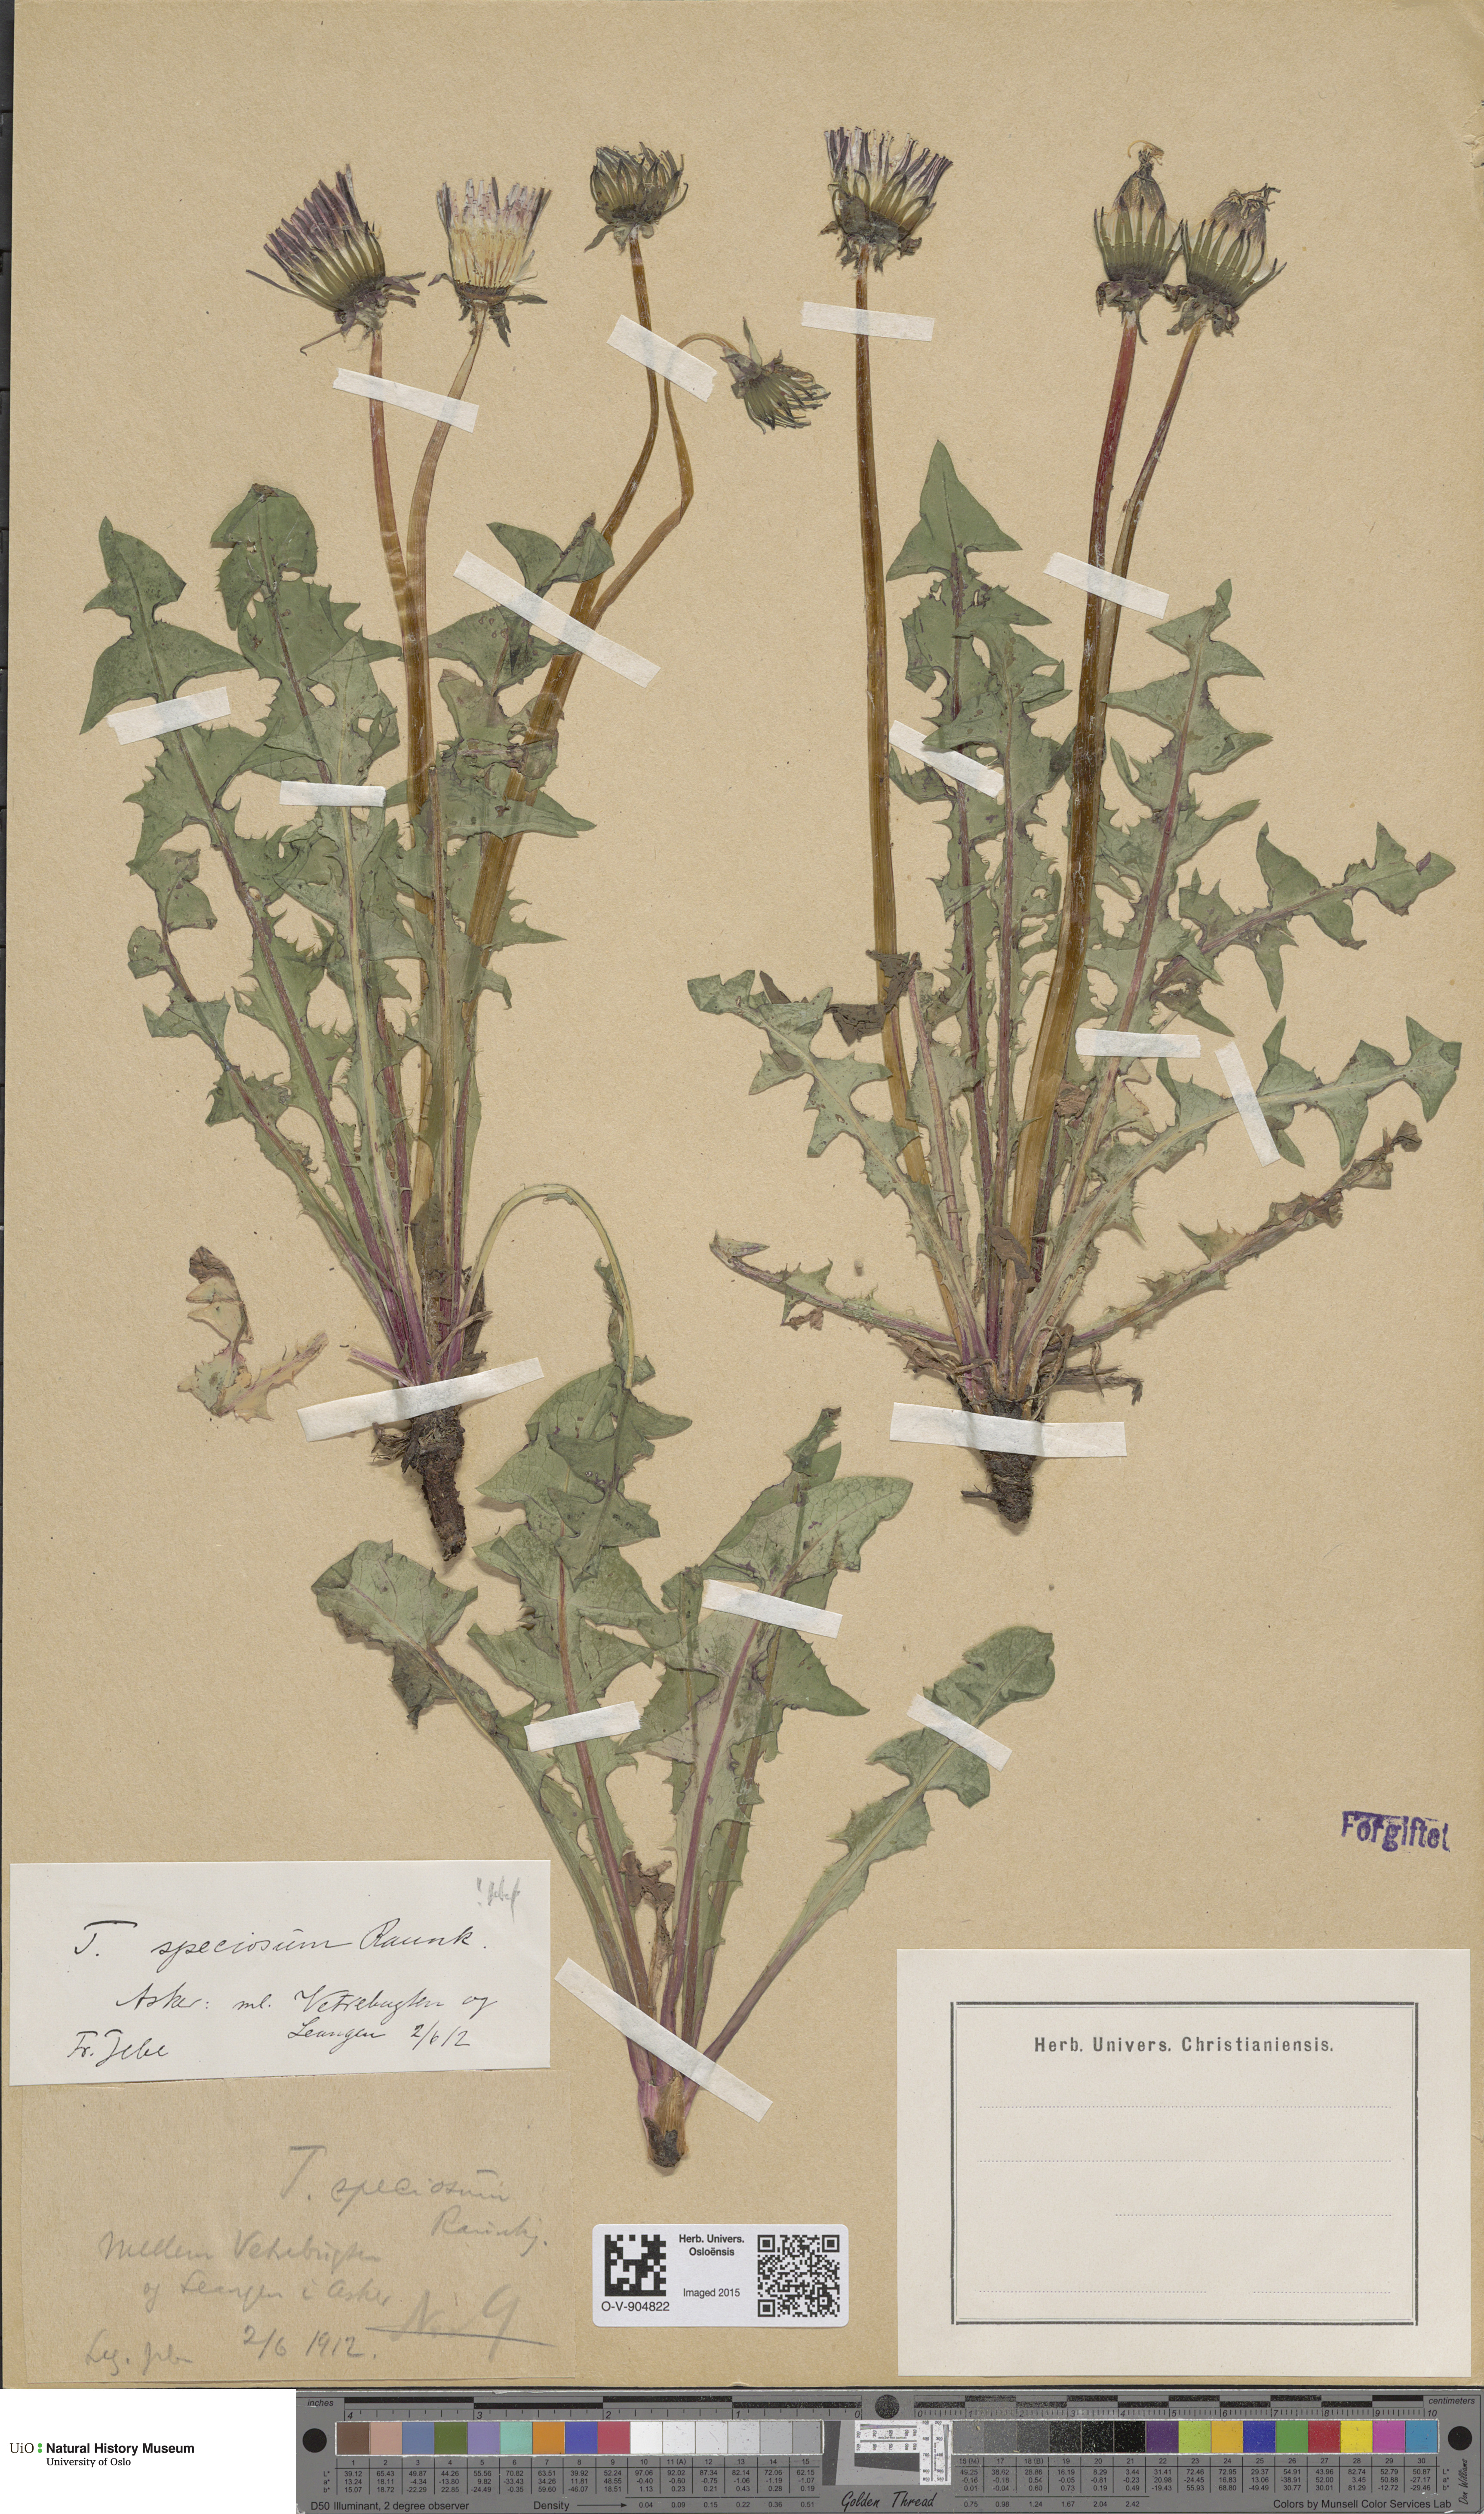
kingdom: Plantae
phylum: Tracheophyta
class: Magnoliopsida
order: Asterales
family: Asteraceae
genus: Taraxacum
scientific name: Taraxacum speciosum
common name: Massive dandelion
